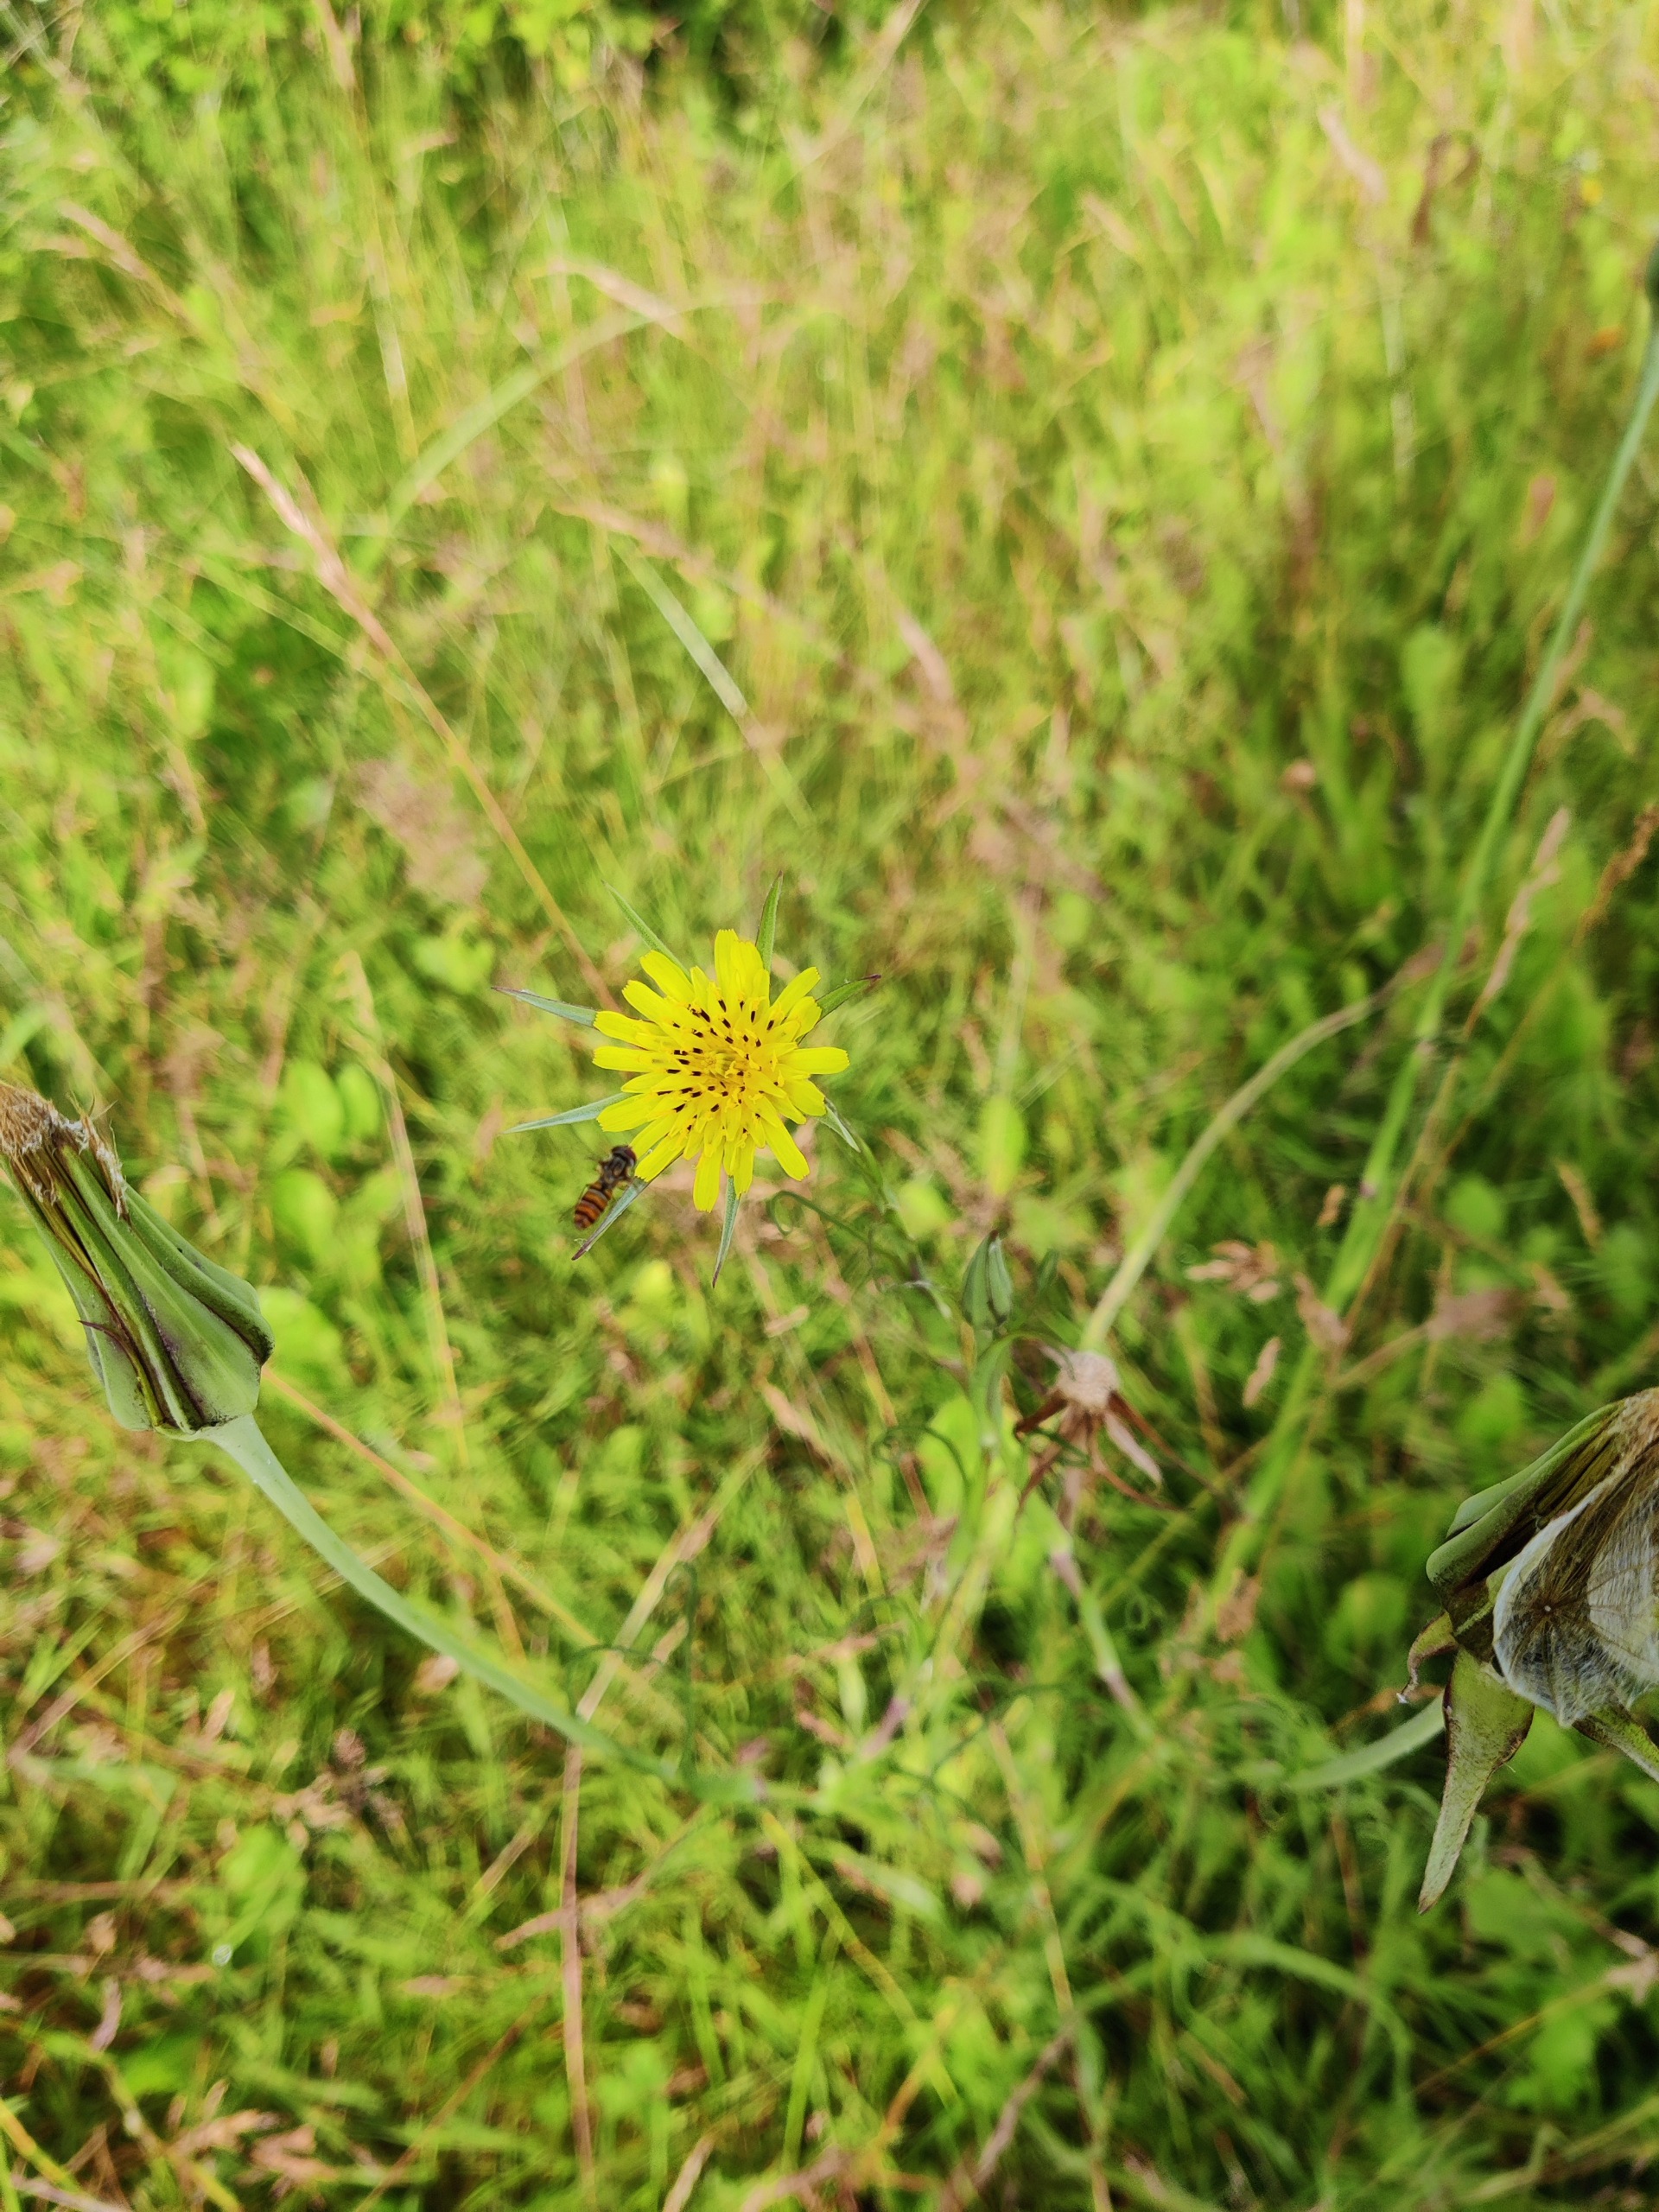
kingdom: Plantae
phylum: Tracheophyta
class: Magnoliopsida
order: Asterales
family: Asteraceae
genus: Tragopogon
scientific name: Tragopogon minor
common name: Småkronet gedeskæg
